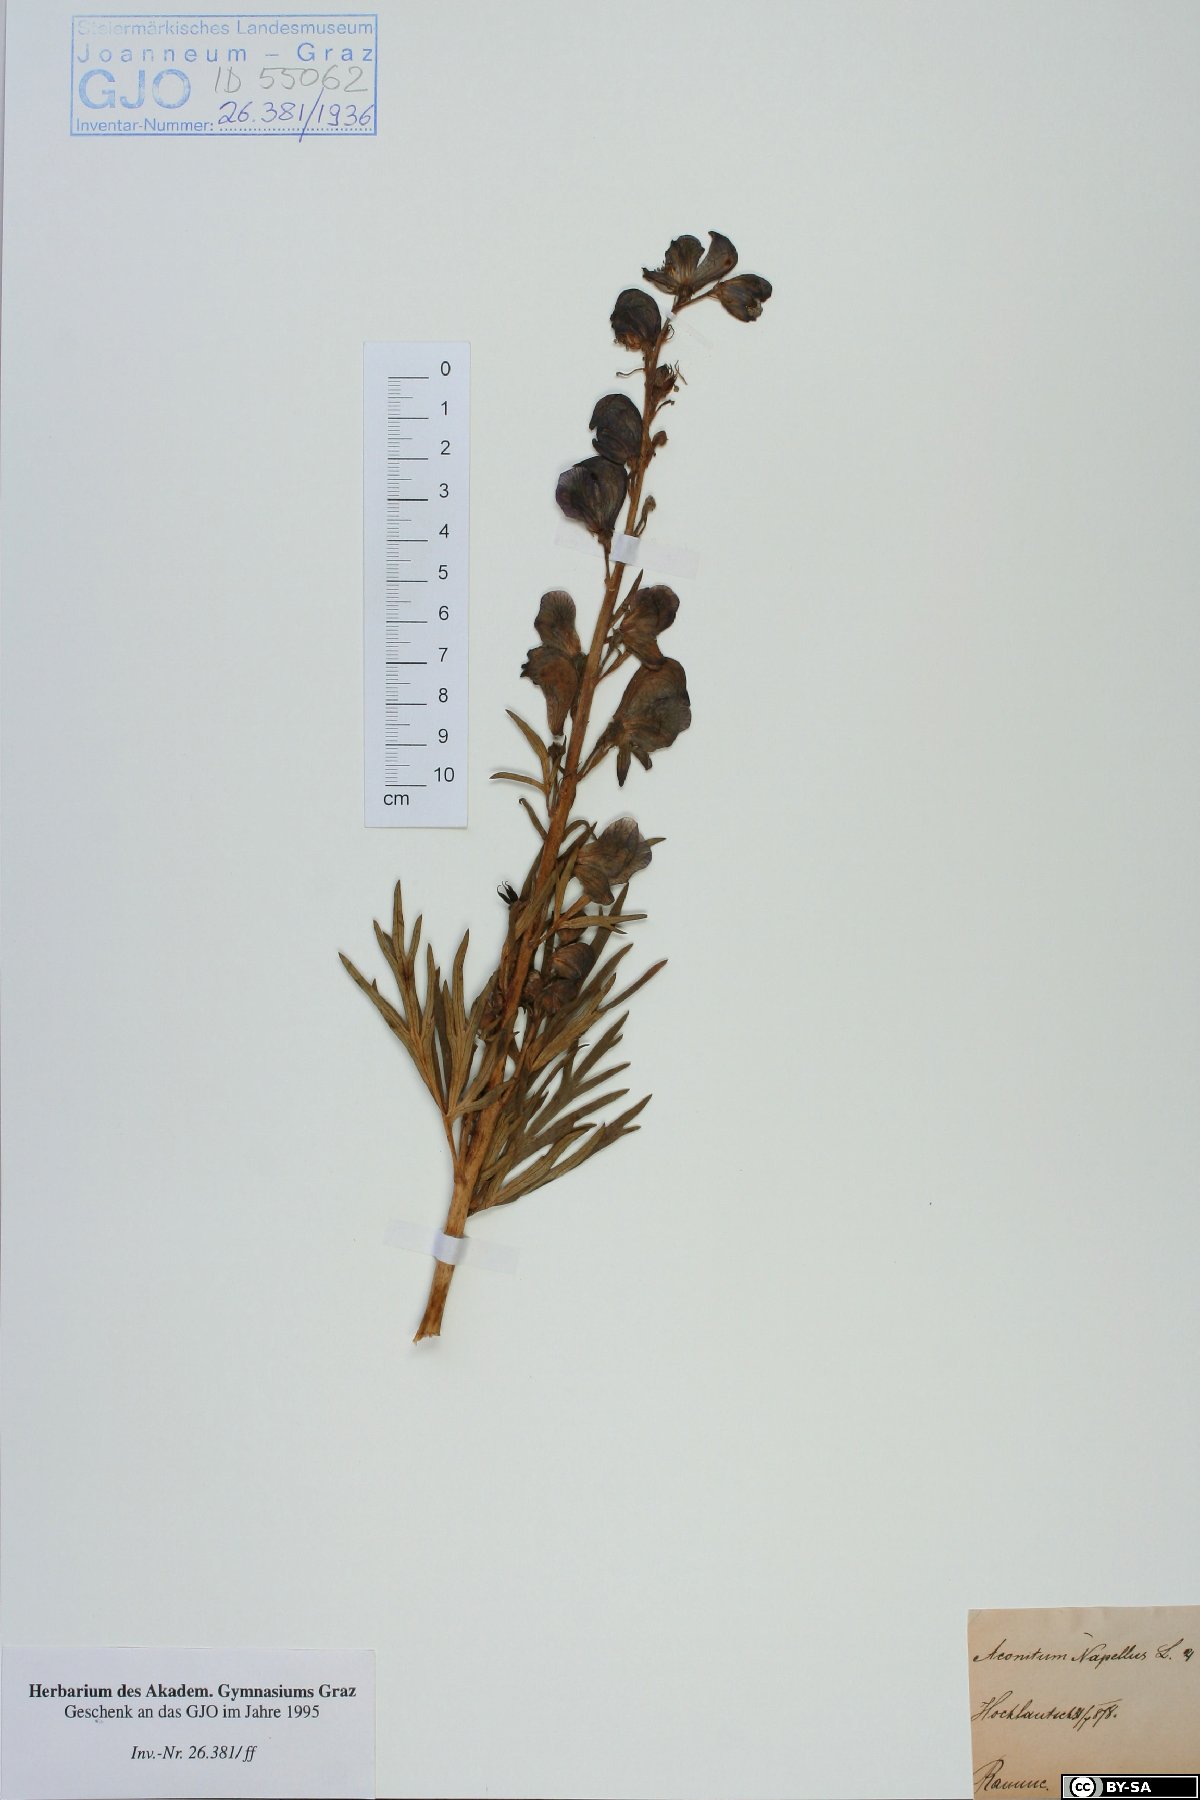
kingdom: Plantae
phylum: Tracheophyta
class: Magnoliopsida
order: Ranunculales
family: Ranunculaceae
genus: Aconitum
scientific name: Aconitum napellus
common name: Garden monkshood
